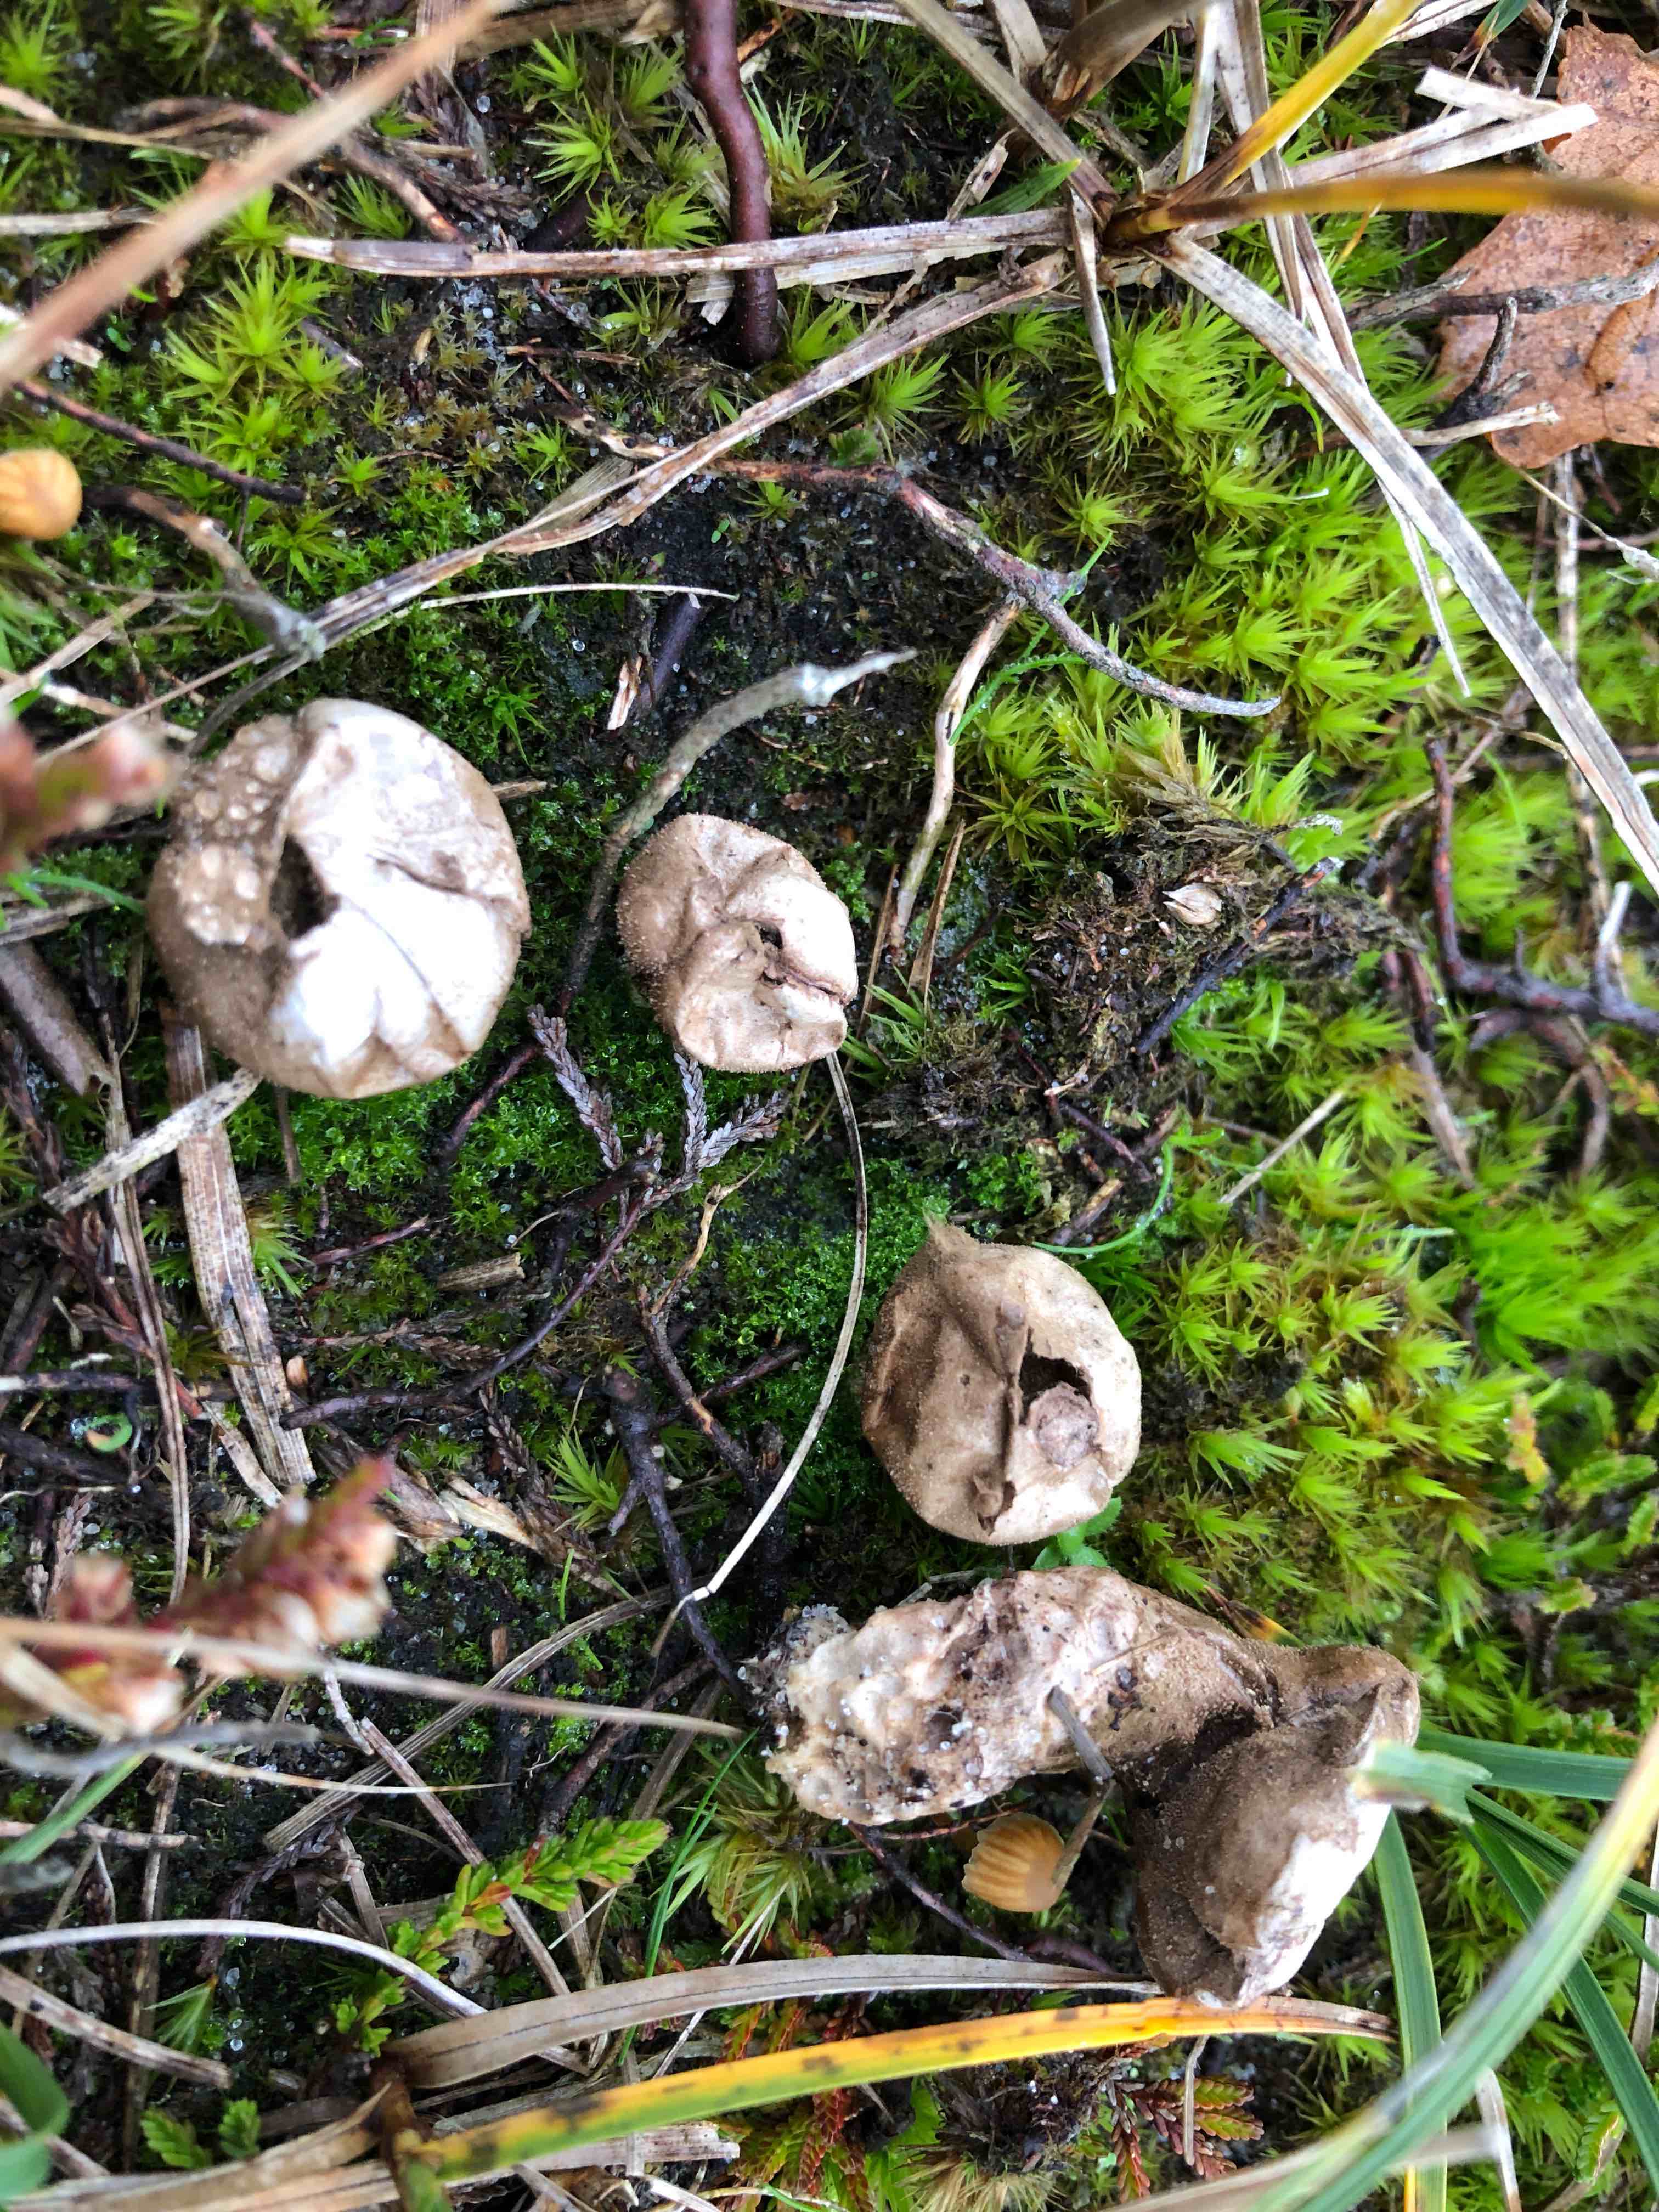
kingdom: Fungi
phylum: Basidiomycota
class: Agaricomycetes
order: Agaricales
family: Lycoperdaceae
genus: Lycoperdon
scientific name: Lycoperdon lividum
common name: mark-støvbold
